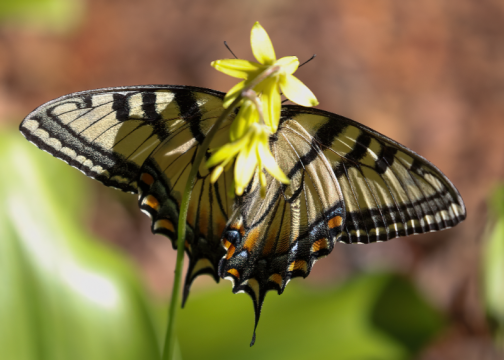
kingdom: Animalia
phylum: Arthropoda
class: Insecta
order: Lepidoptera
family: Papilionidae
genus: Pterourus
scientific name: Pterourus canadensis
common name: Canadian Tiger Swallowtail
